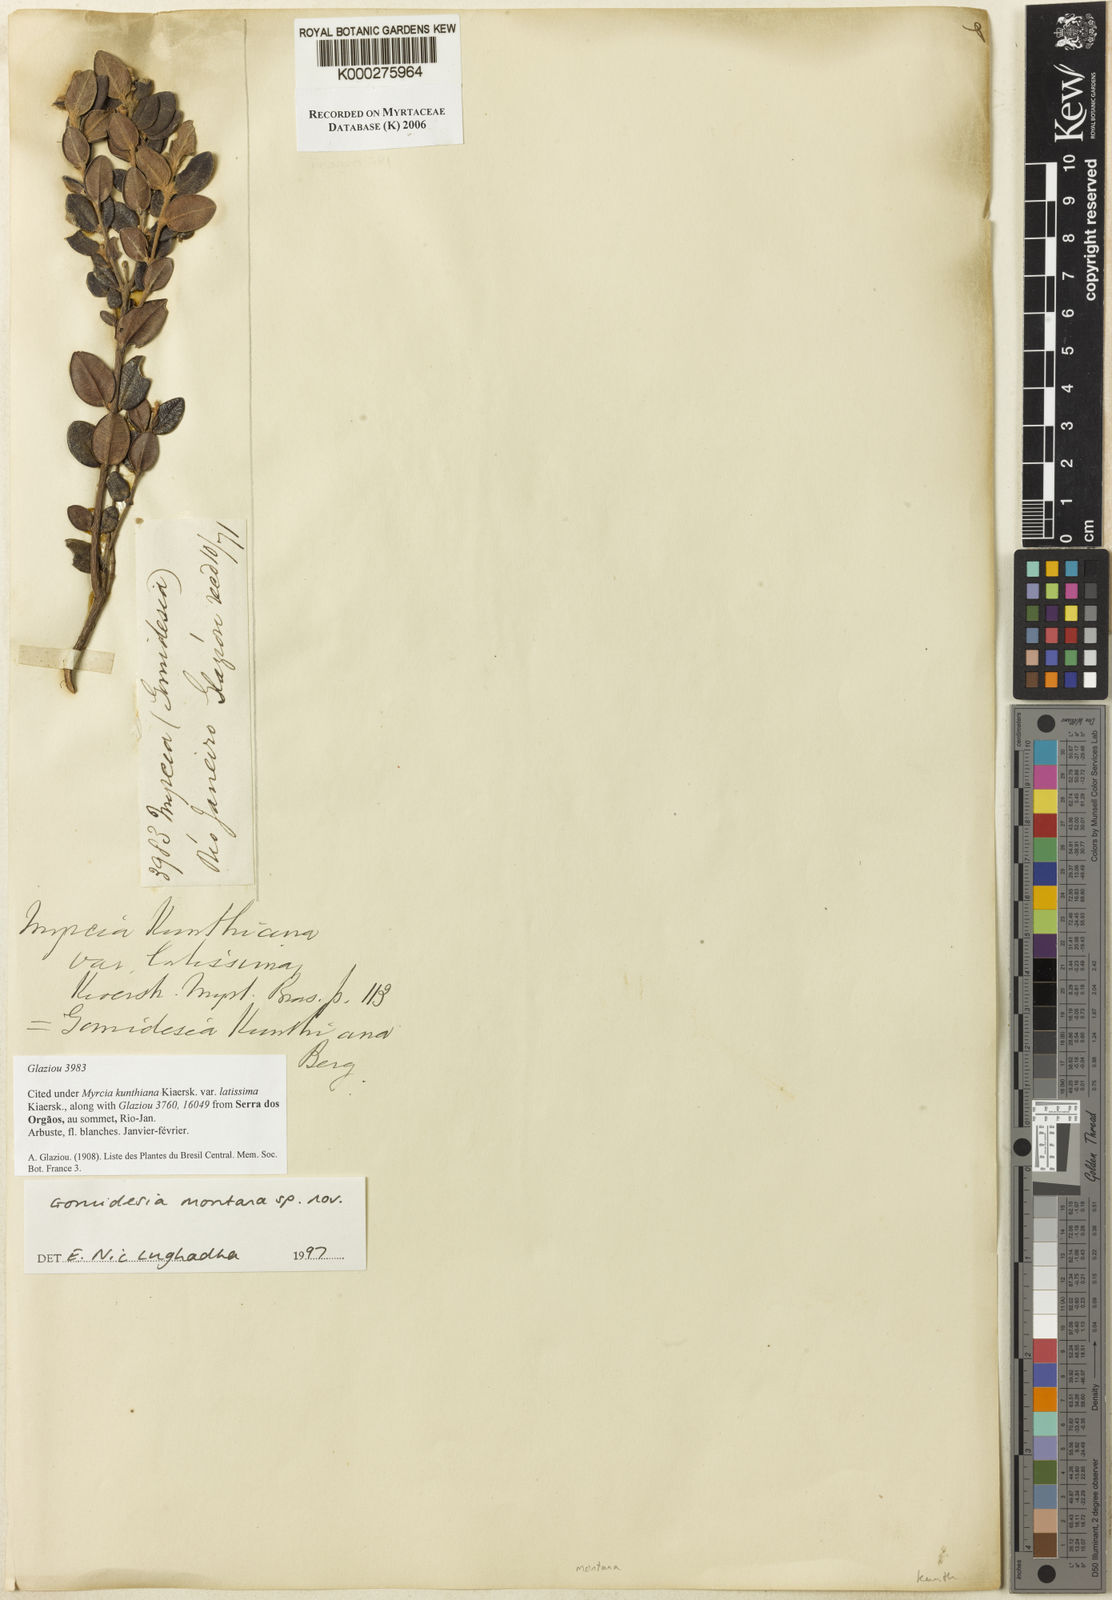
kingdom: Plantae
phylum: Tracheophyta
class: Magnoliopsida
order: Myrtales
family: Myrtaceae
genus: Myrcia
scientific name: Myrcia montana
